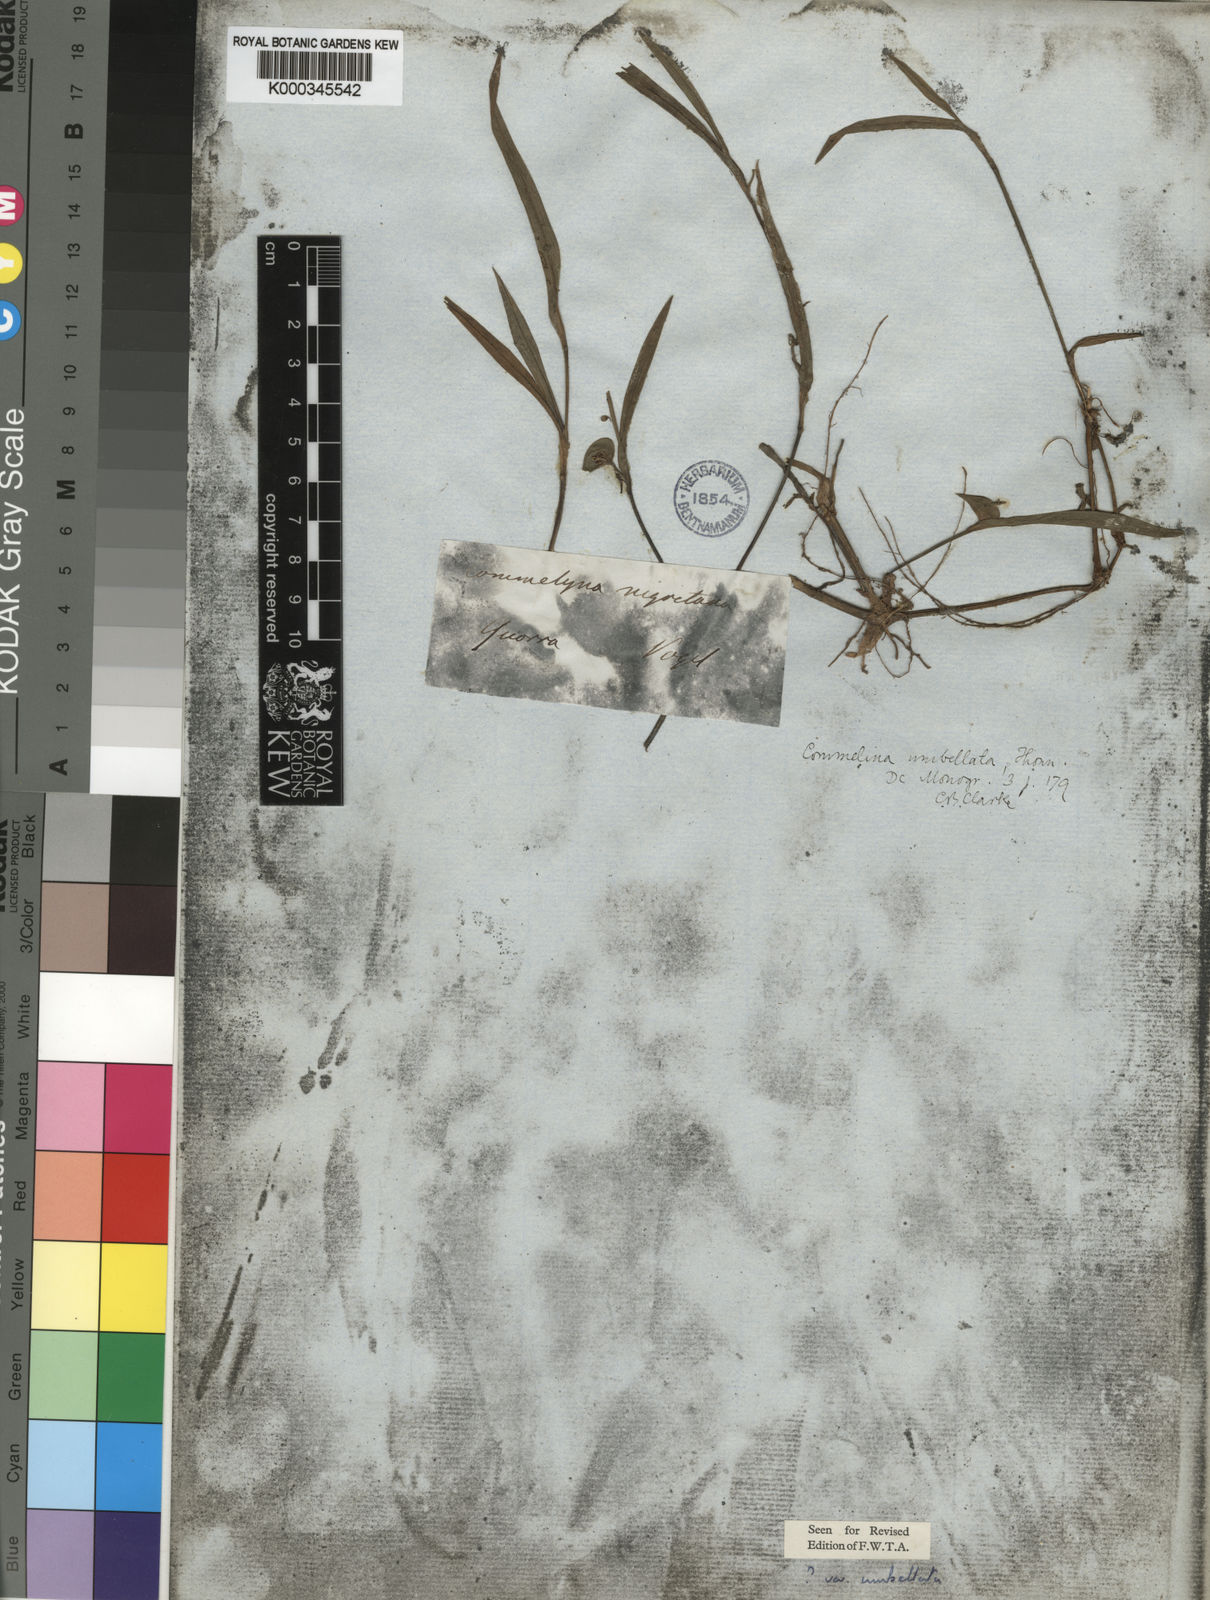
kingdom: Plantae
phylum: Tracheophyta
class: Liliopsida
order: Commelinales
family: Commelinaceae
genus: Commelina
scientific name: Commelina nigritana
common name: African dayflower
